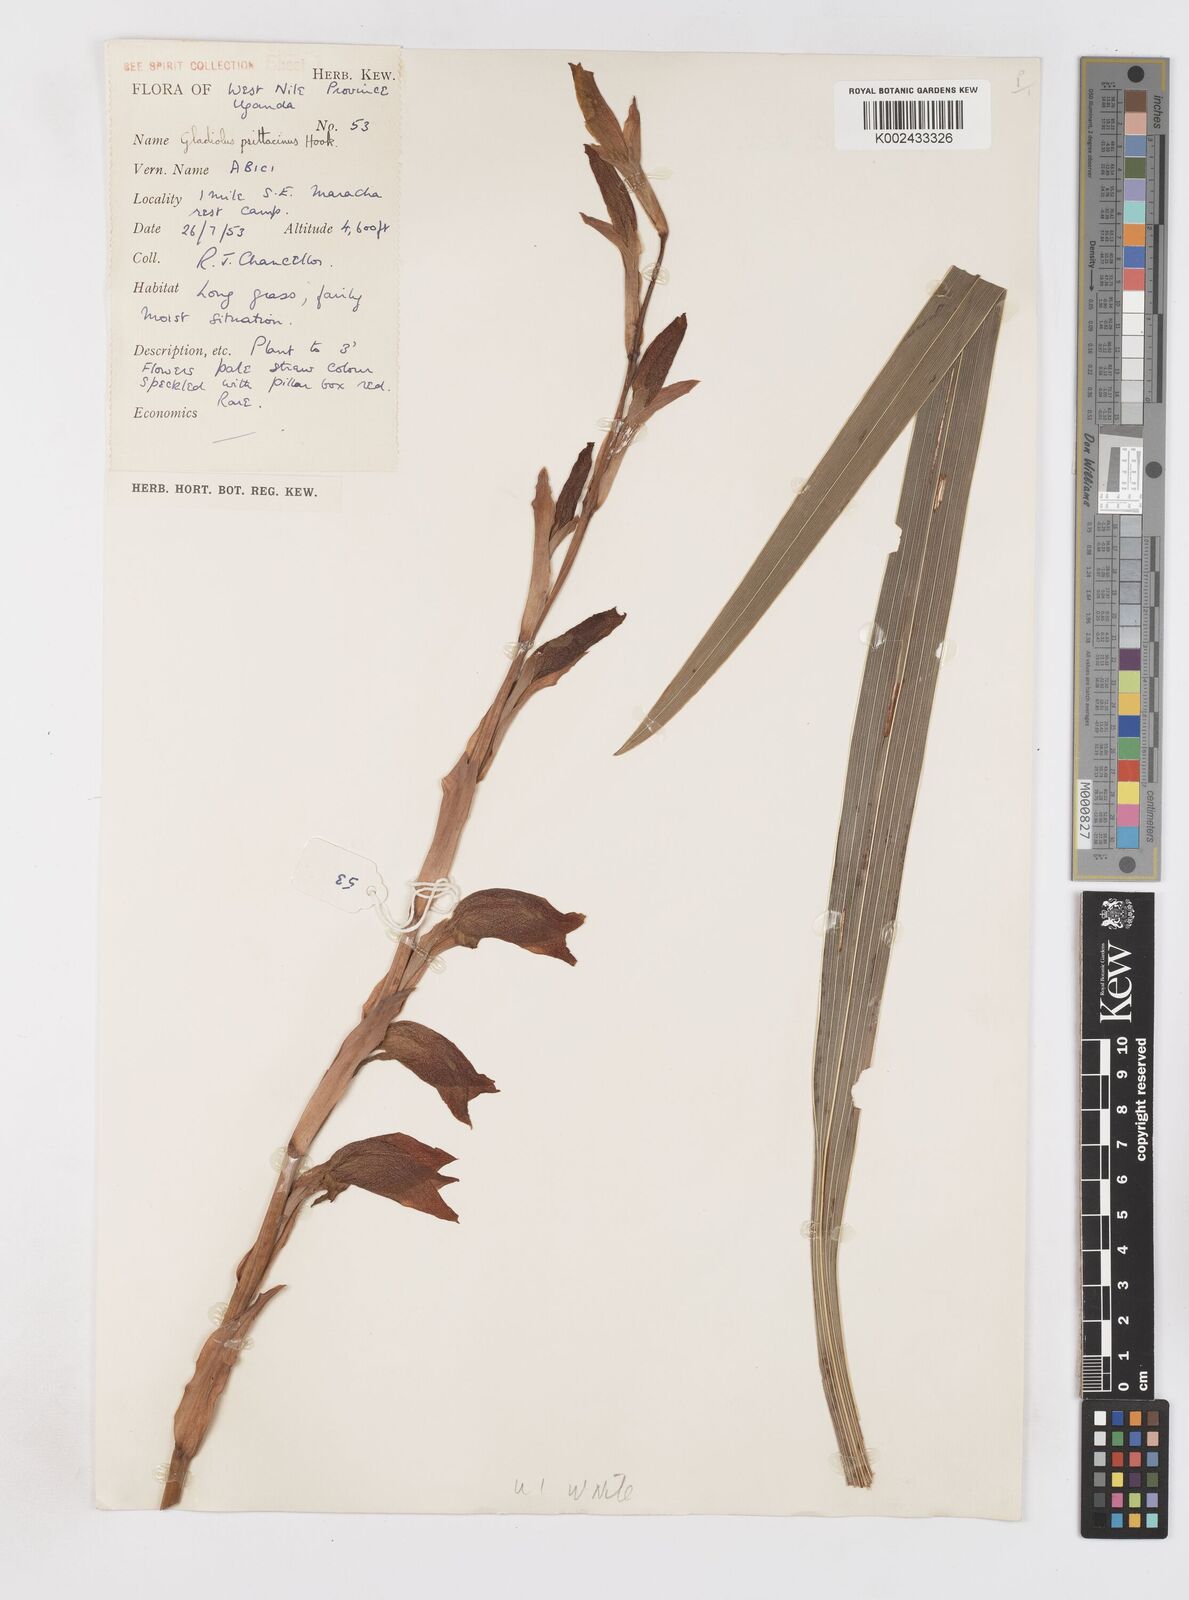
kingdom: Plantae
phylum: Tracheophyta
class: Liliopsida
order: Asparagales
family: Iridaceae
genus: Gladiolus
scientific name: Gladiolus dalenii
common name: Cornflag
